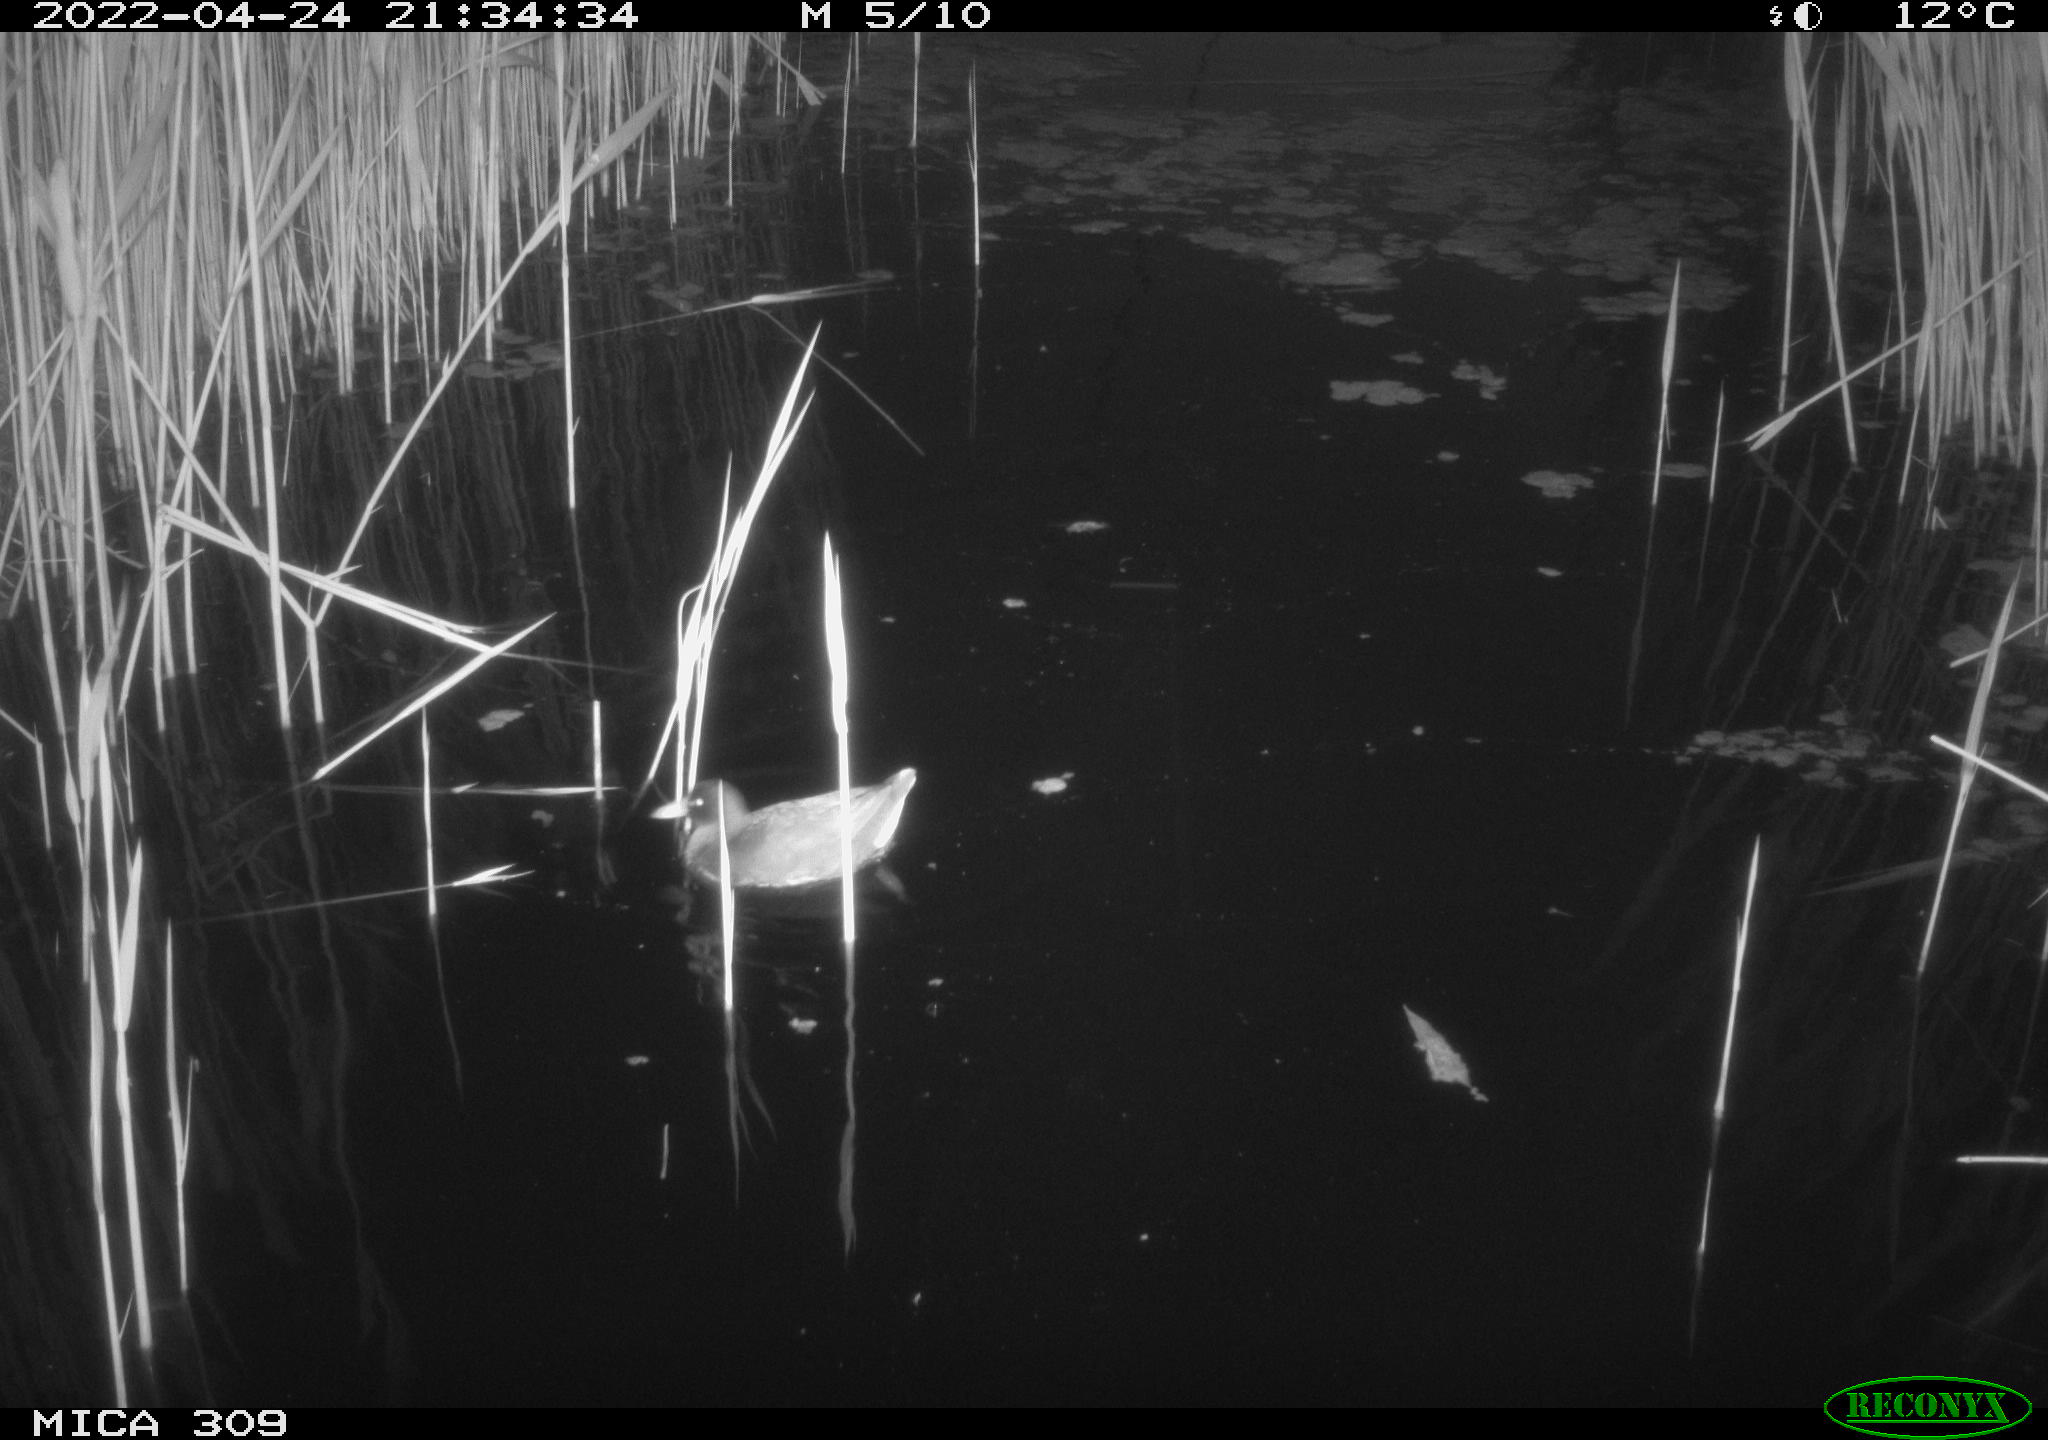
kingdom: Animalia
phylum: Chordata
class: Aves
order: Gruiformes
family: Rallidae
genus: Gallinula
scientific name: Gallinula chloropus
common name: Common moorhen
